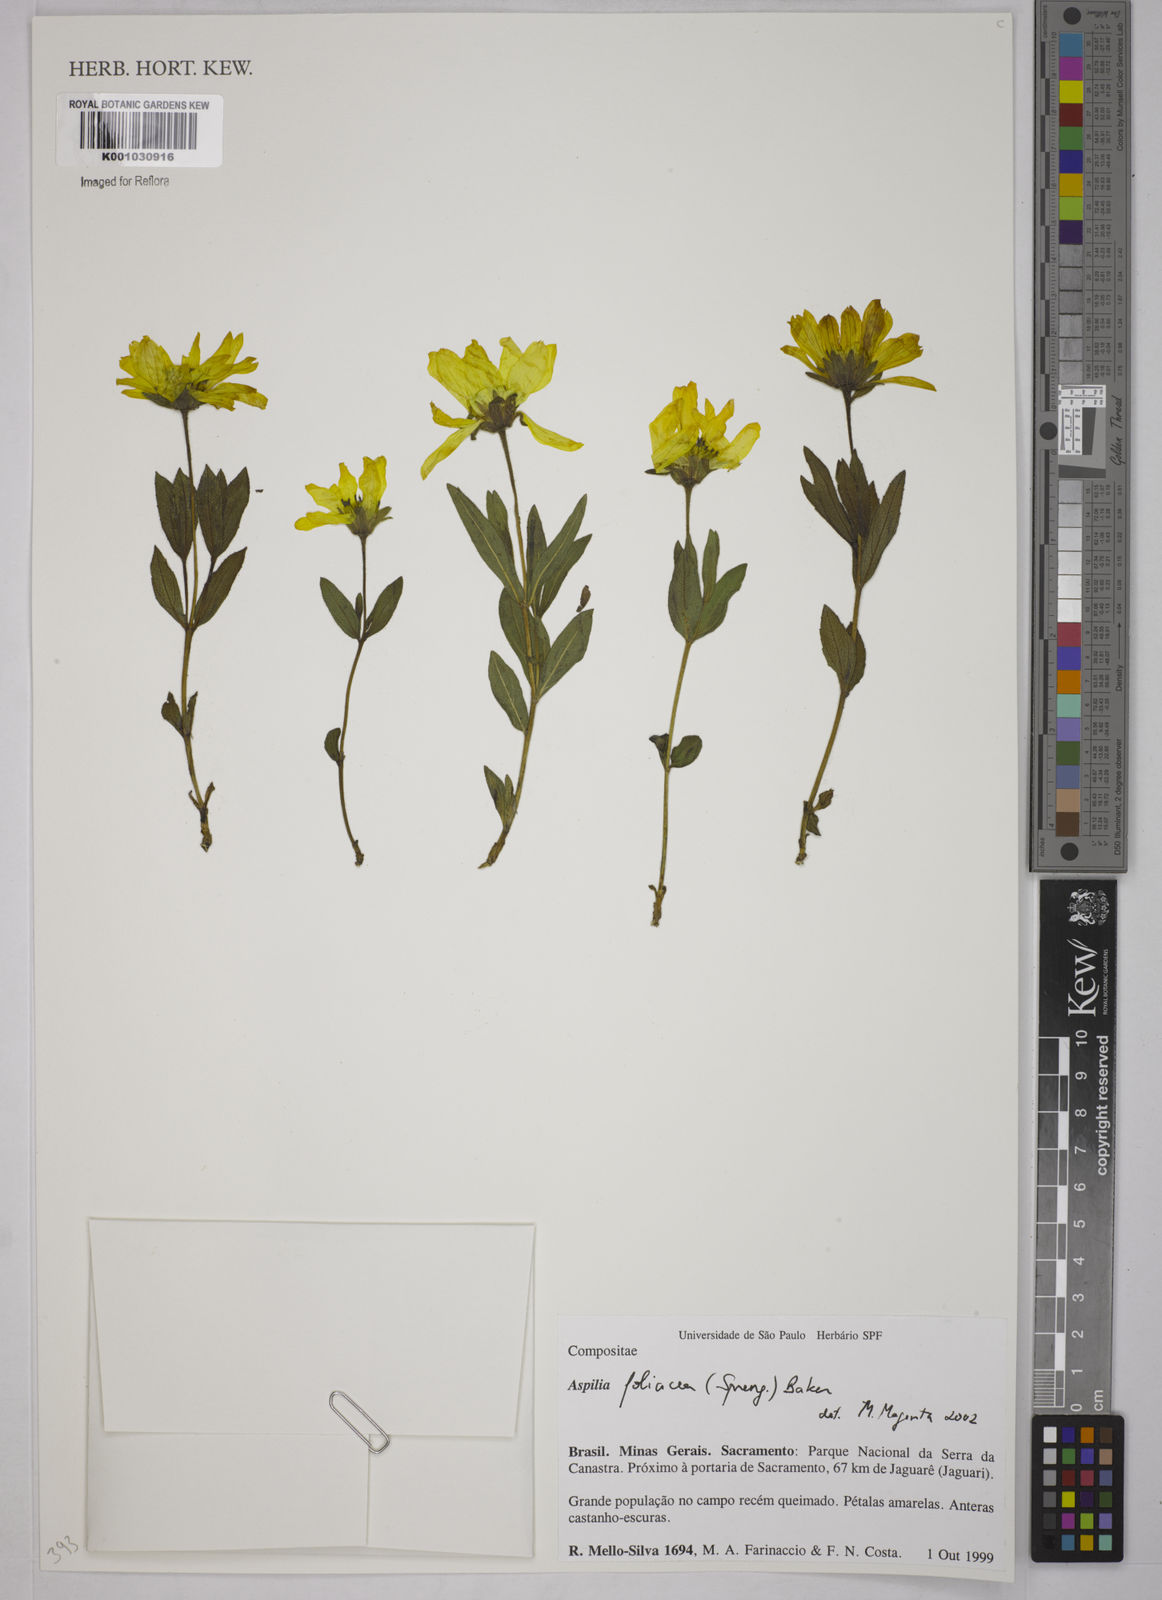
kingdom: Plantae
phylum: Tracheophyta
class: Magnoliopsida
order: Asterales
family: Asteraceae
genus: Wedelia
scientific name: Wedelia foliacea
